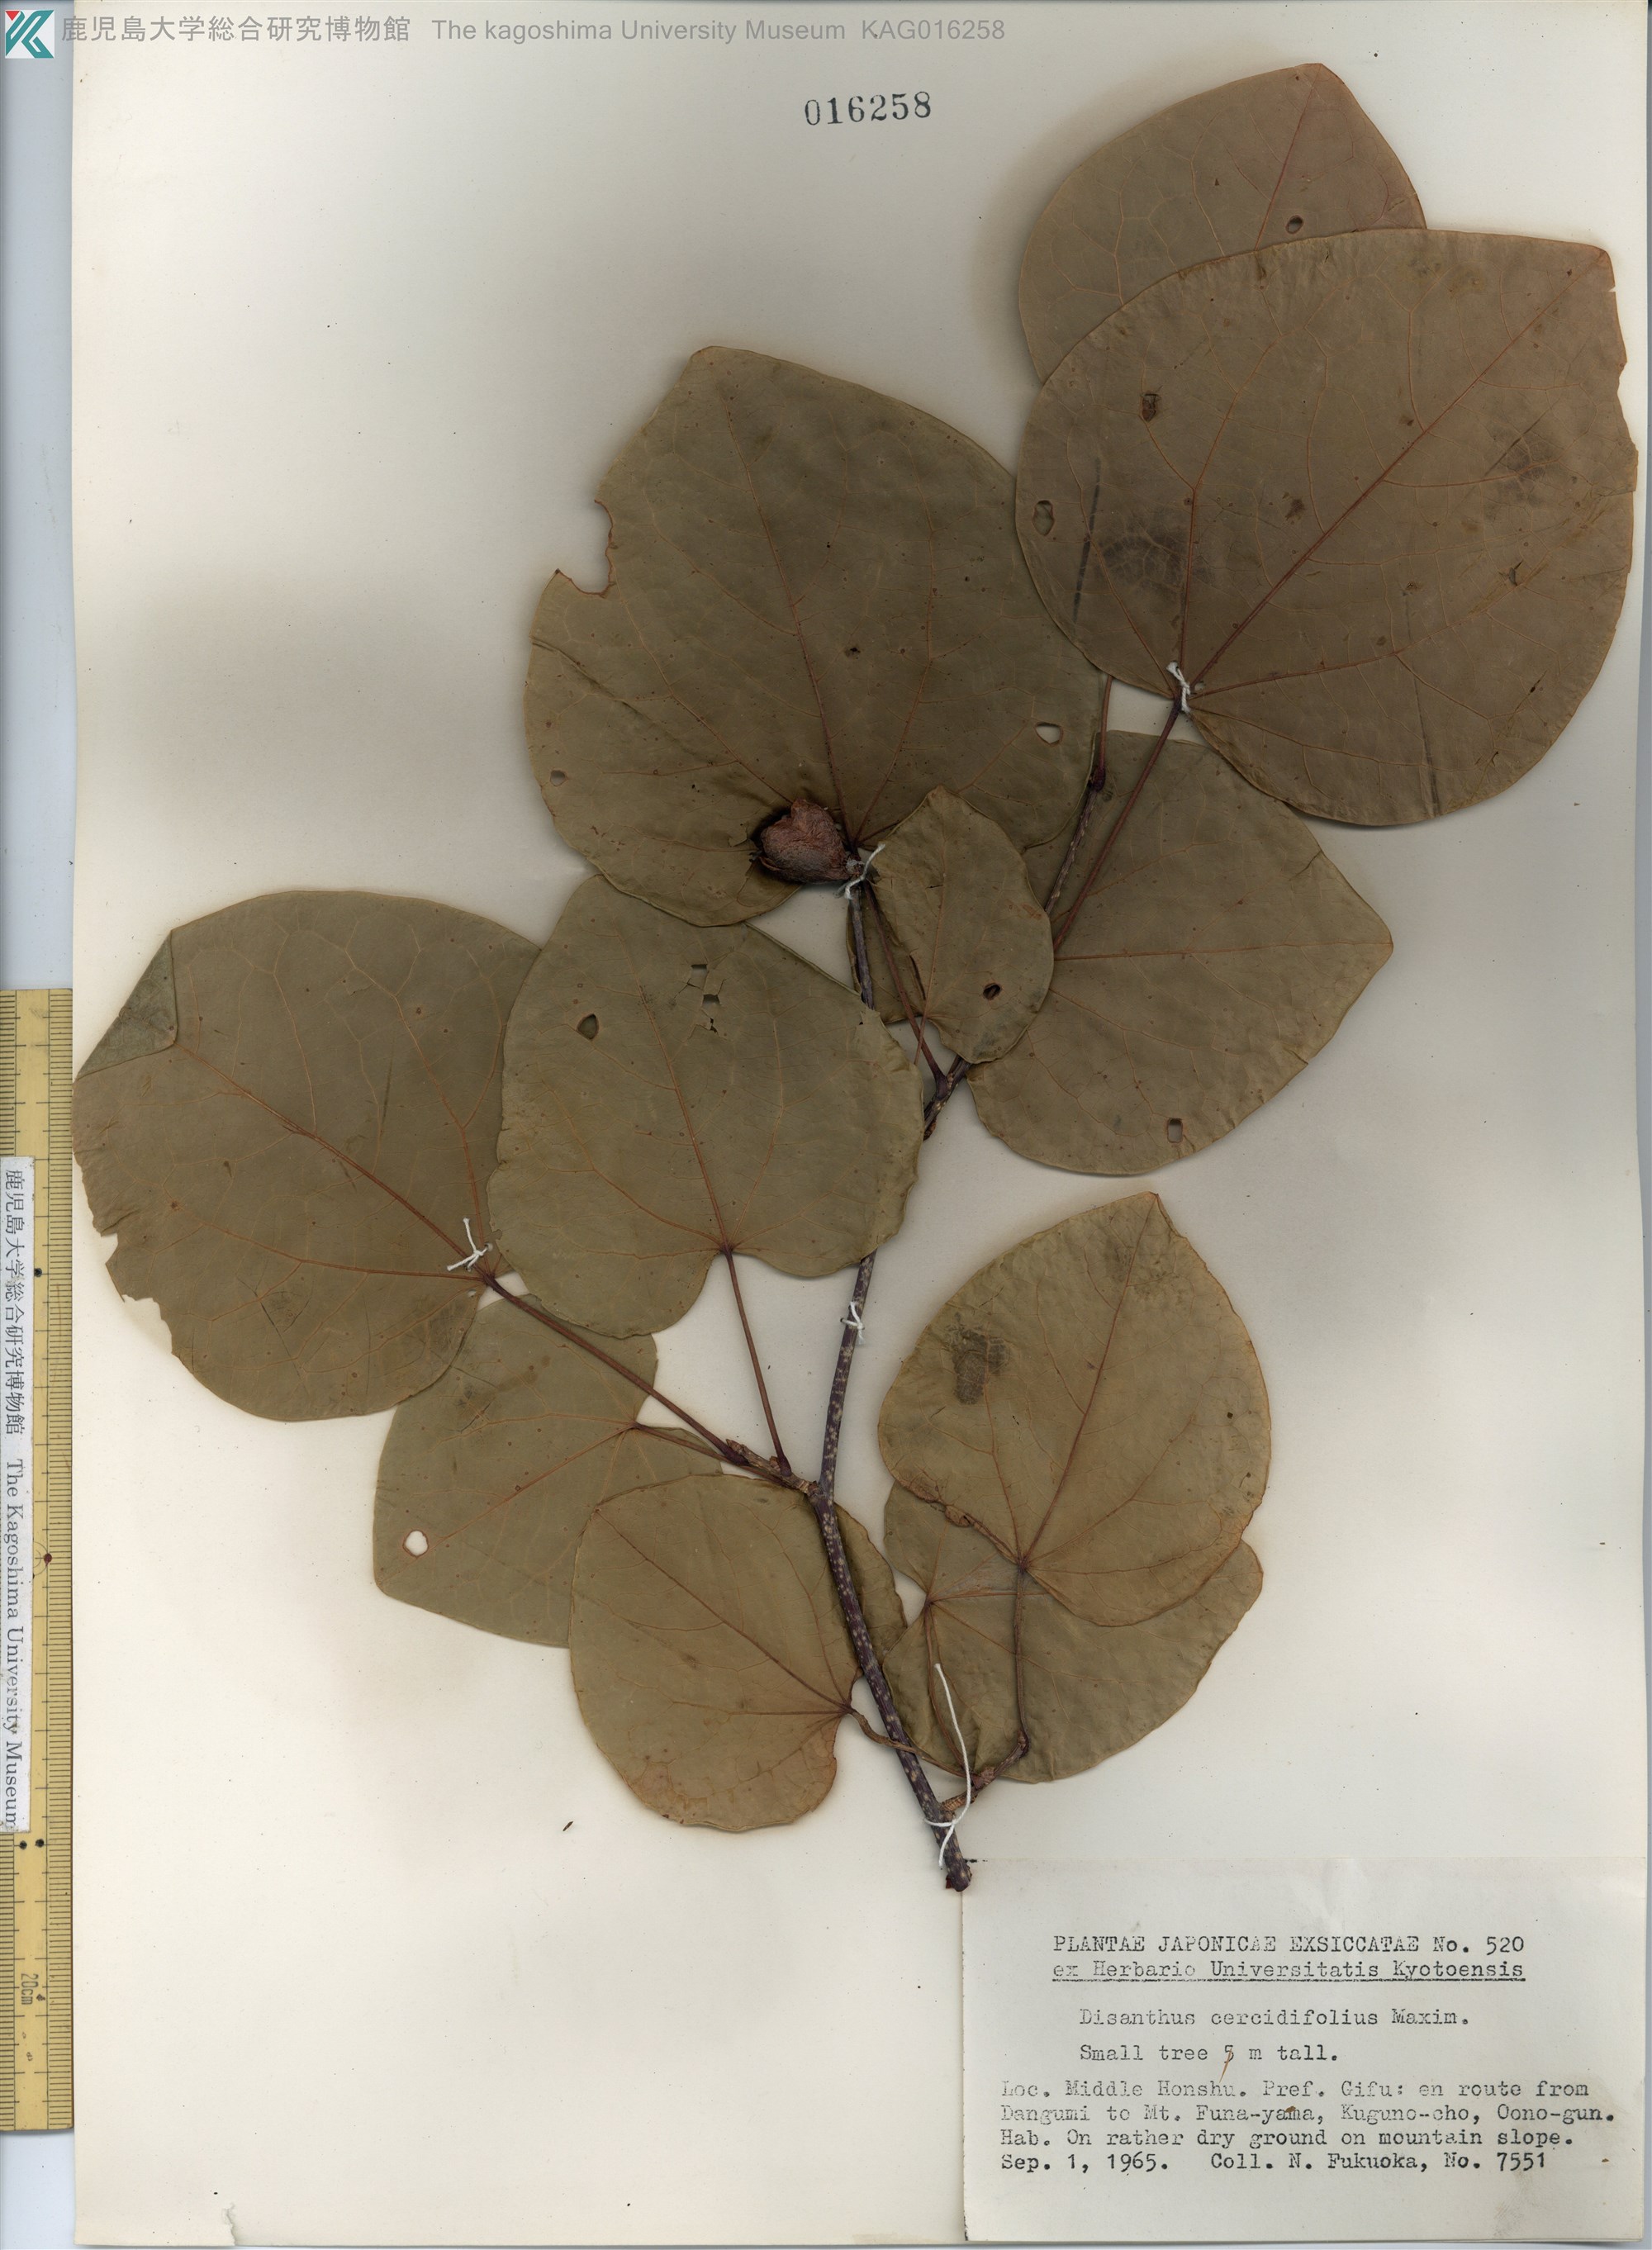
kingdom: Plantae
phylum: Tracheophyta
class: Magnoliopsida
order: Saxifragales
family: Hamamelidaceae
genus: Disanthus
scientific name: Disanthus cercidifolius
